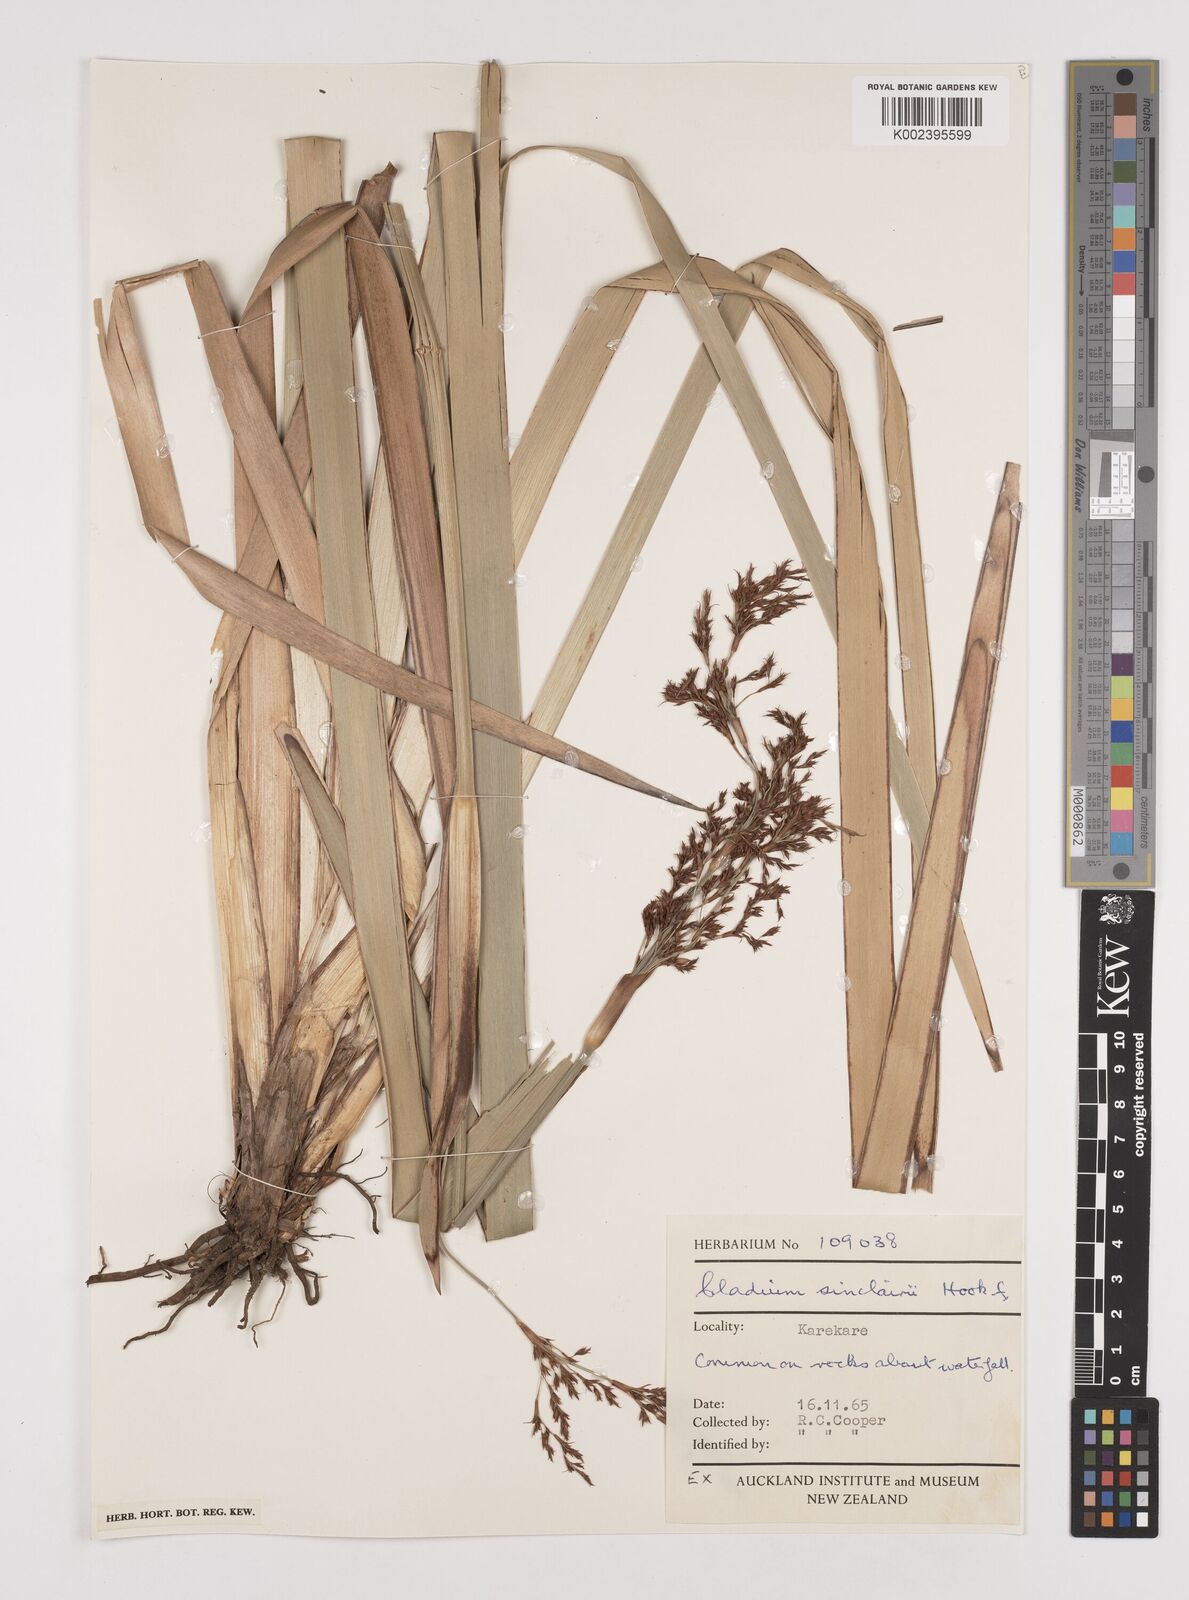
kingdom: Plantae
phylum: Tracheophyta
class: Liliopsida
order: Poales
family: Cyperaceae
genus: Machaerina
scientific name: Machaerina sinclairii
